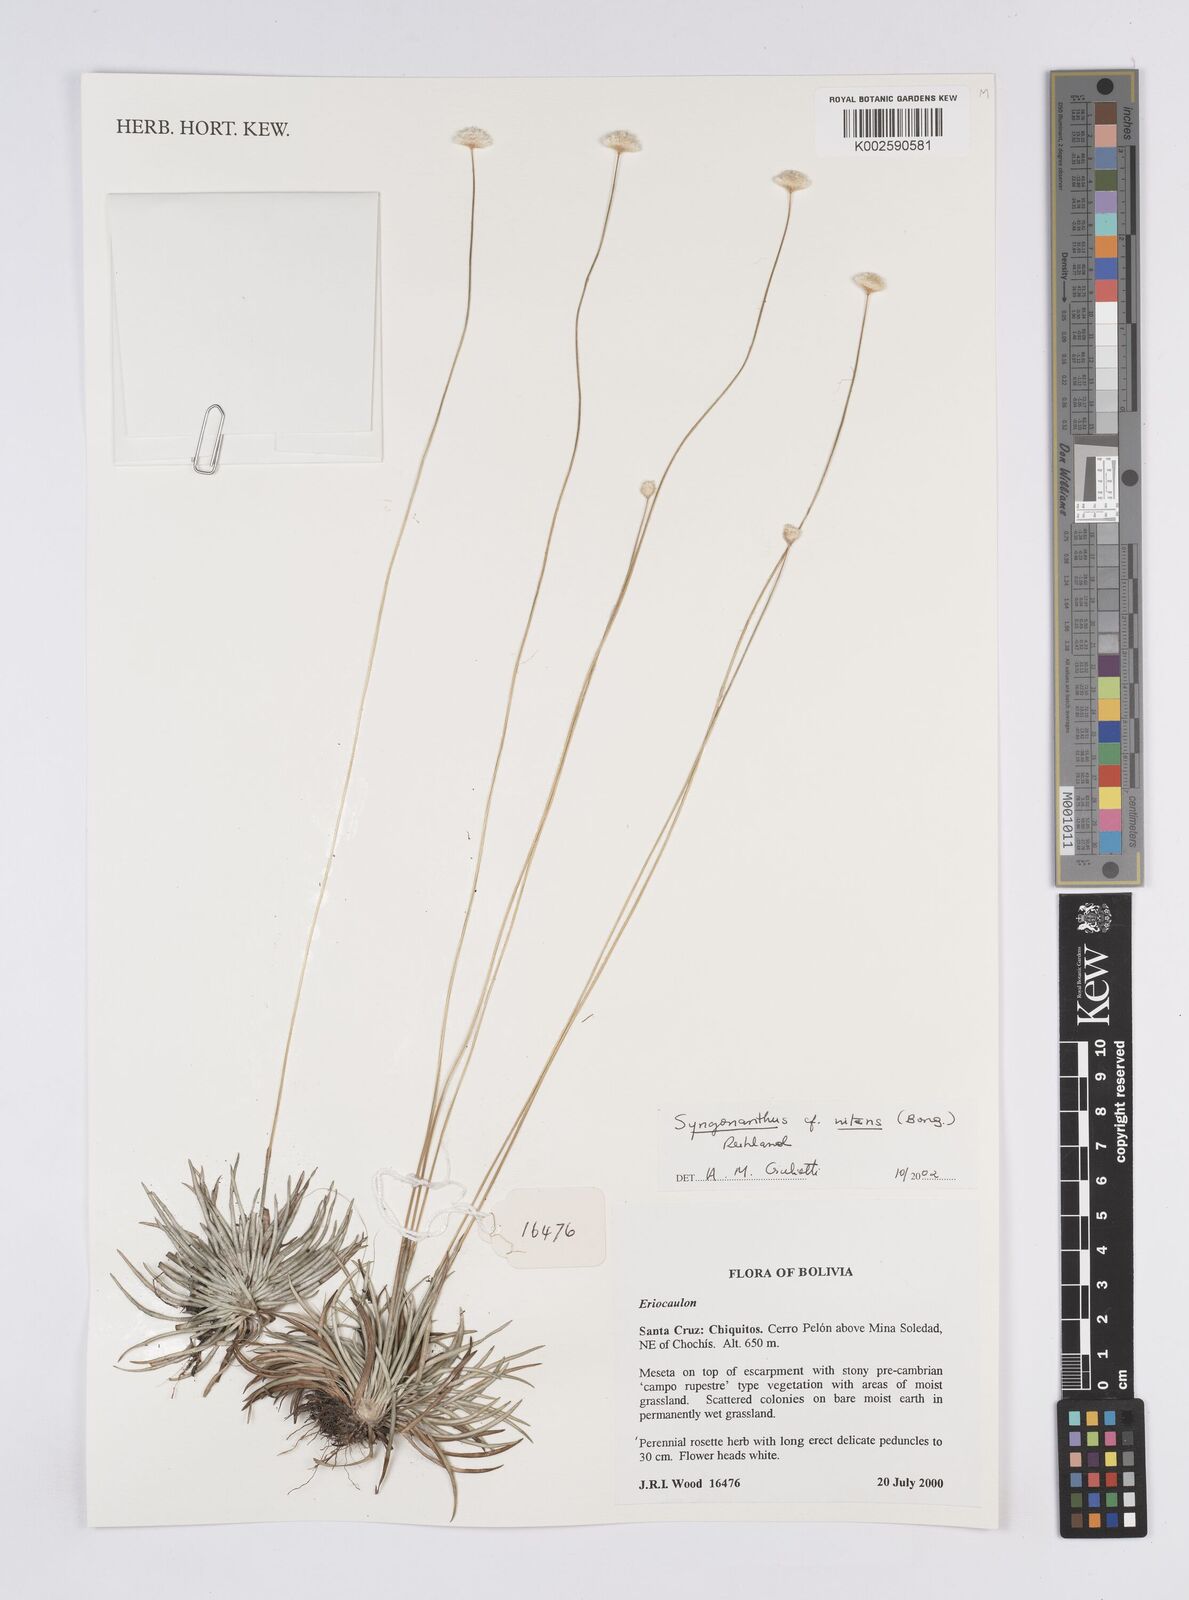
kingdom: Plantae
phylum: Tracheophyta
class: Liliopsida
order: Poales
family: Eriocaulaceae
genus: Syngonanthus
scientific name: Syngonanthus nitens
